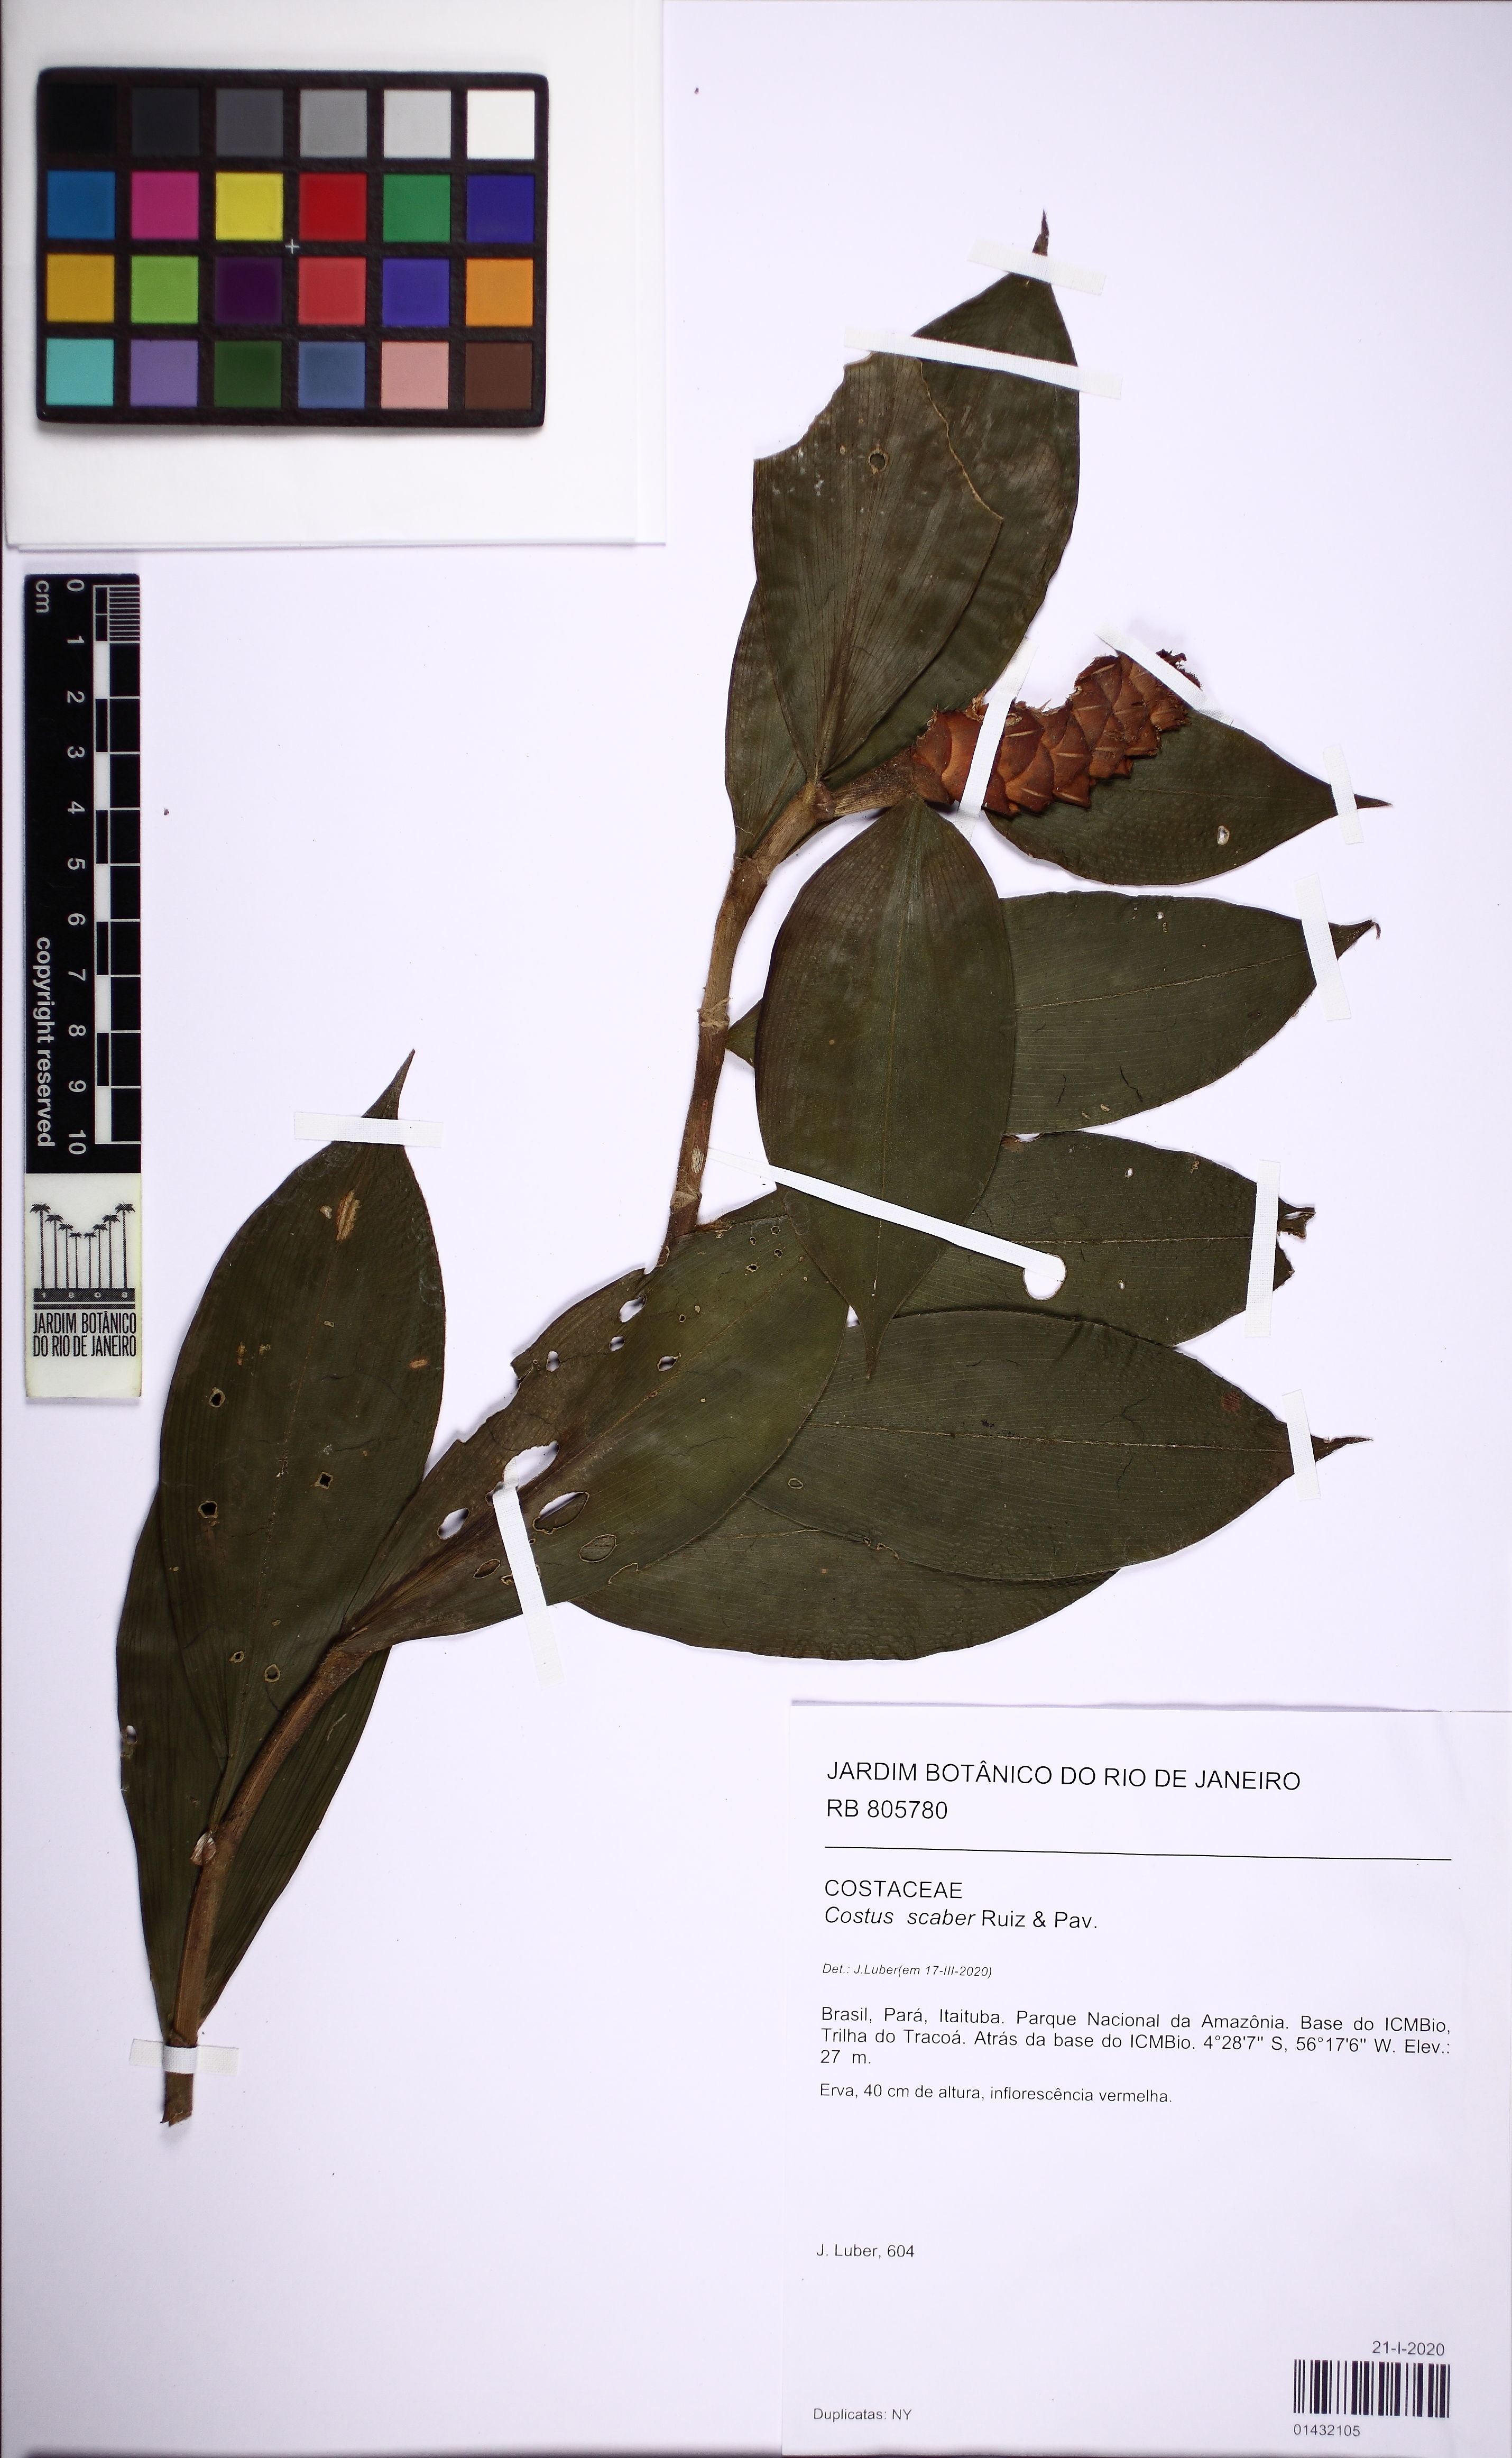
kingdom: Plantae
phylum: Tracheophyta
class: Liliopsida
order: Zingiberales
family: Costaceae
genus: Costus
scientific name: Costus scaber
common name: Spiral head ginger
